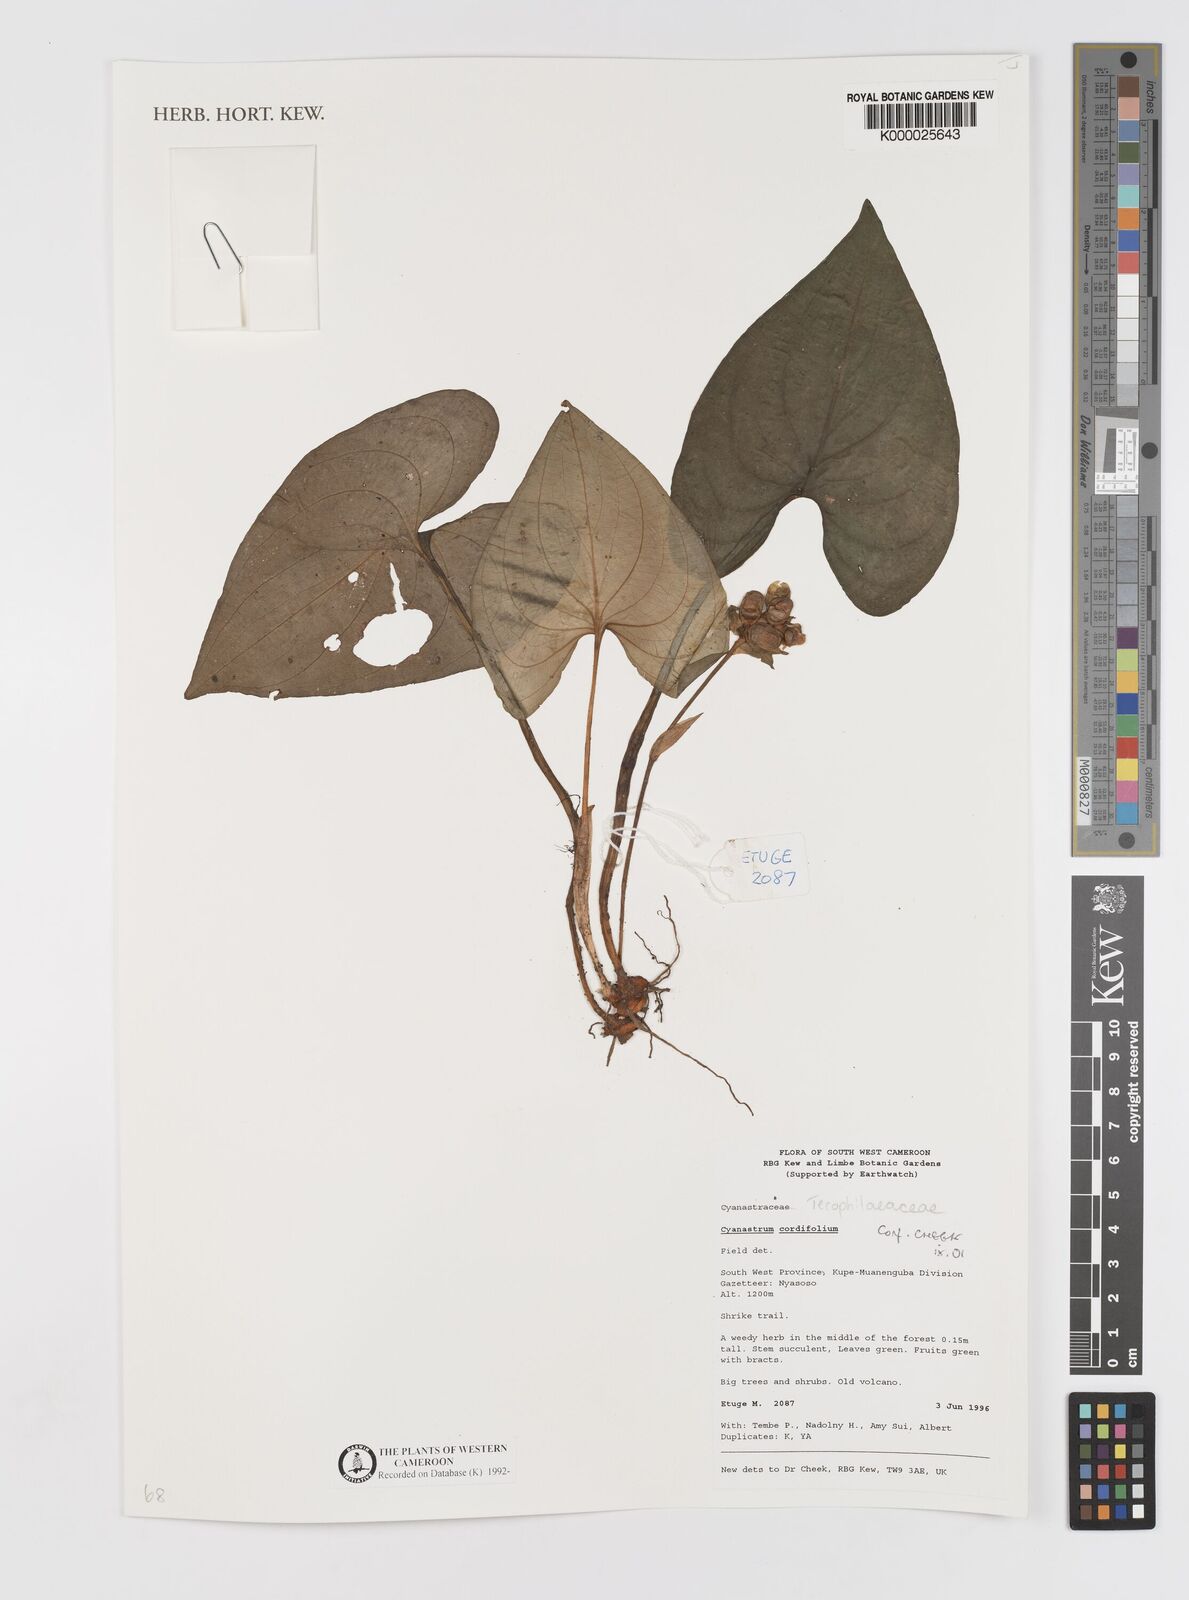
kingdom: Plantae
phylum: Tracheophyta
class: Liliopsida
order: Asparagales
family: Tecophilaeaceae
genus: Cyanastrum
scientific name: Cyanastrum cordifolium
